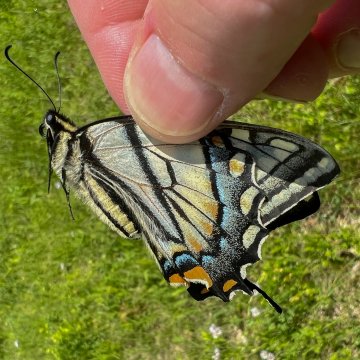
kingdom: Animalia
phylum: Arthropoda
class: Insecta
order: Lepidoptera
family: Papilionidae
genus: Pterourus
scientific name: Pterourus canadensis
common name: Canadian Tiger Swallowtail
